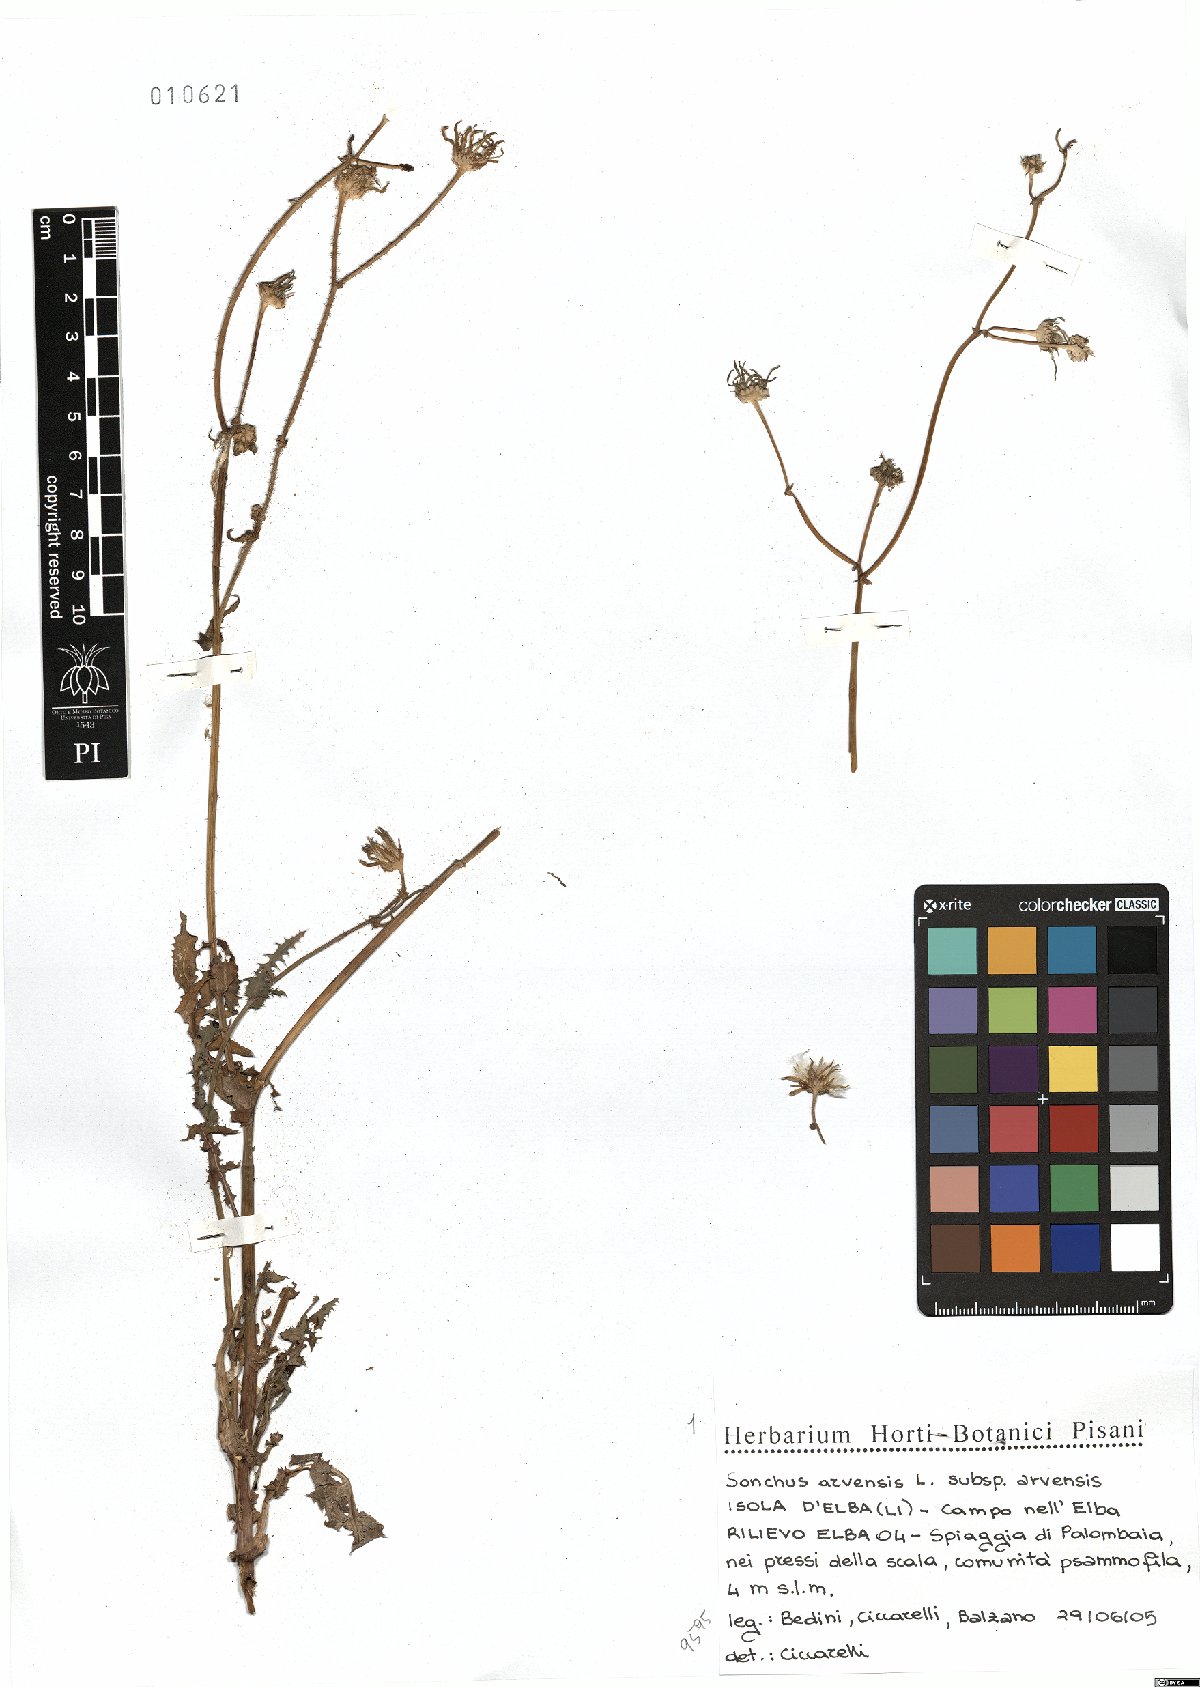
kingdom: Plantae
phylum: Tracheophyta
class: Magnoliopsida
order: Asterales
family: Asteraceae
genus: Sonchus
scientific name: Sonchus arvensis
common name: Perennial sow-thistle
